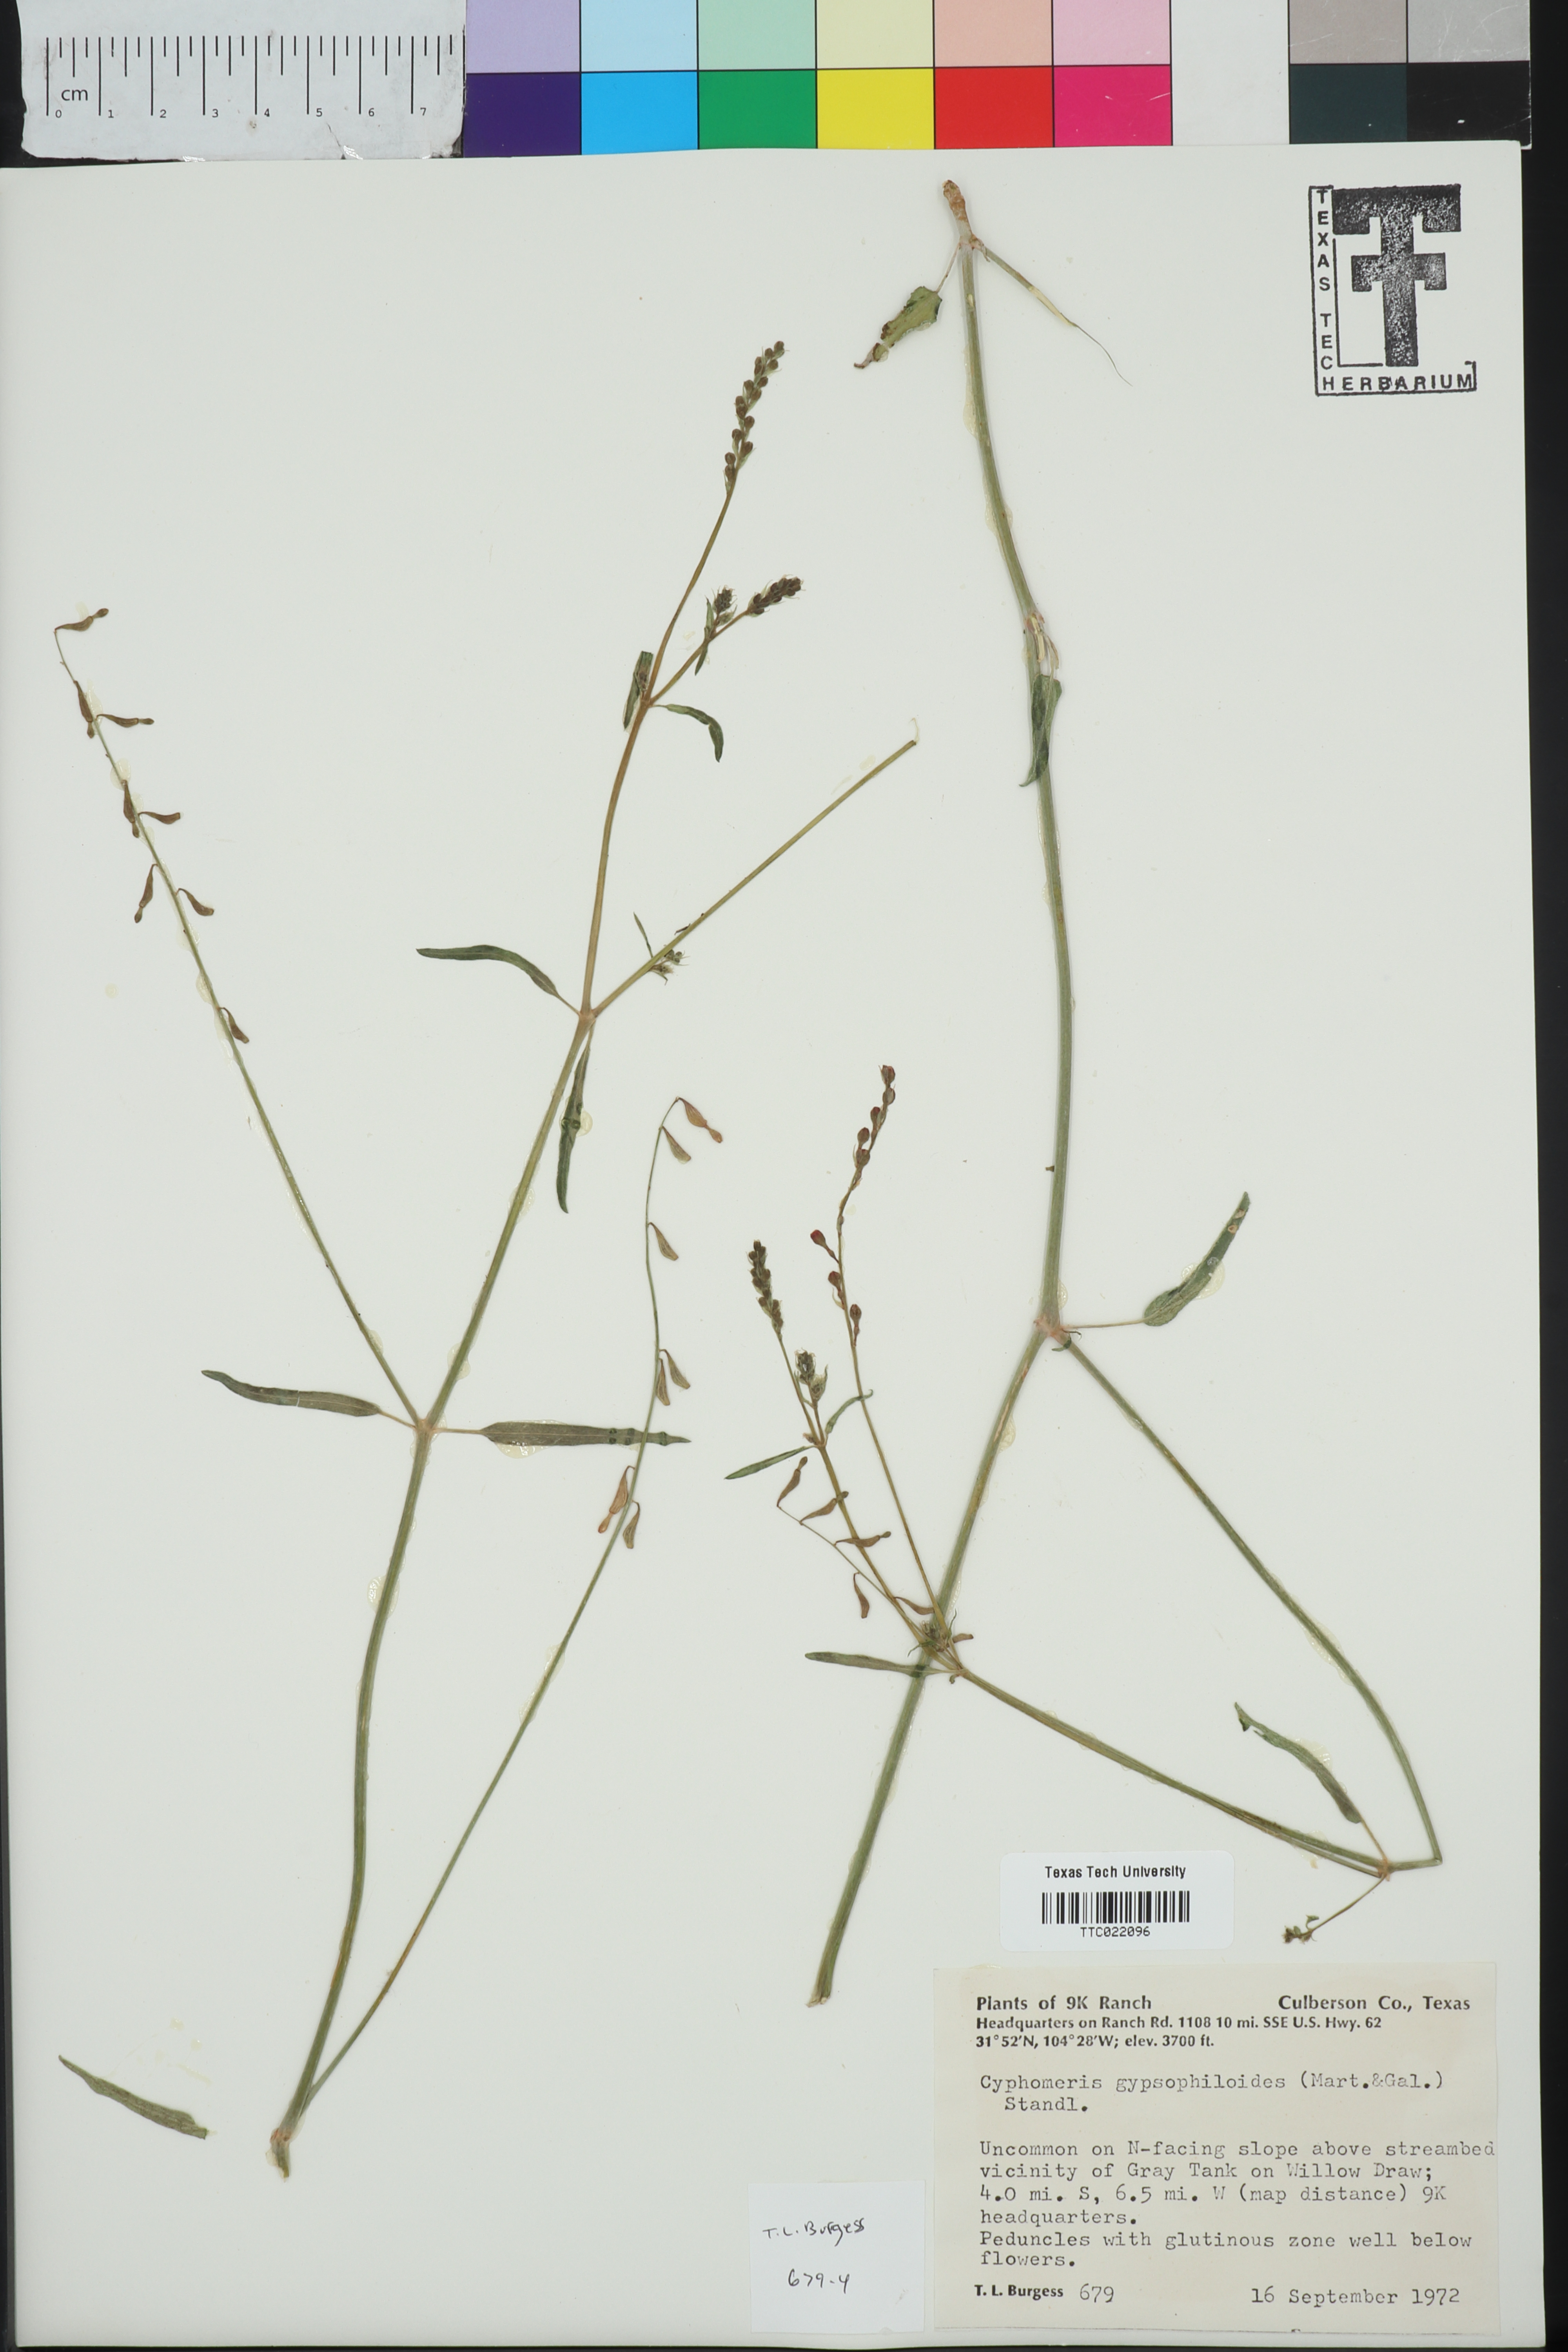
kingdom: Plantae
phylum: Tracheophyta
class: Magnoliopsida
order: Caryophyllales
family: Nyctaginaceae
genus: Cyphomeris
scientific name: Cyphomeris gypsophiloides
